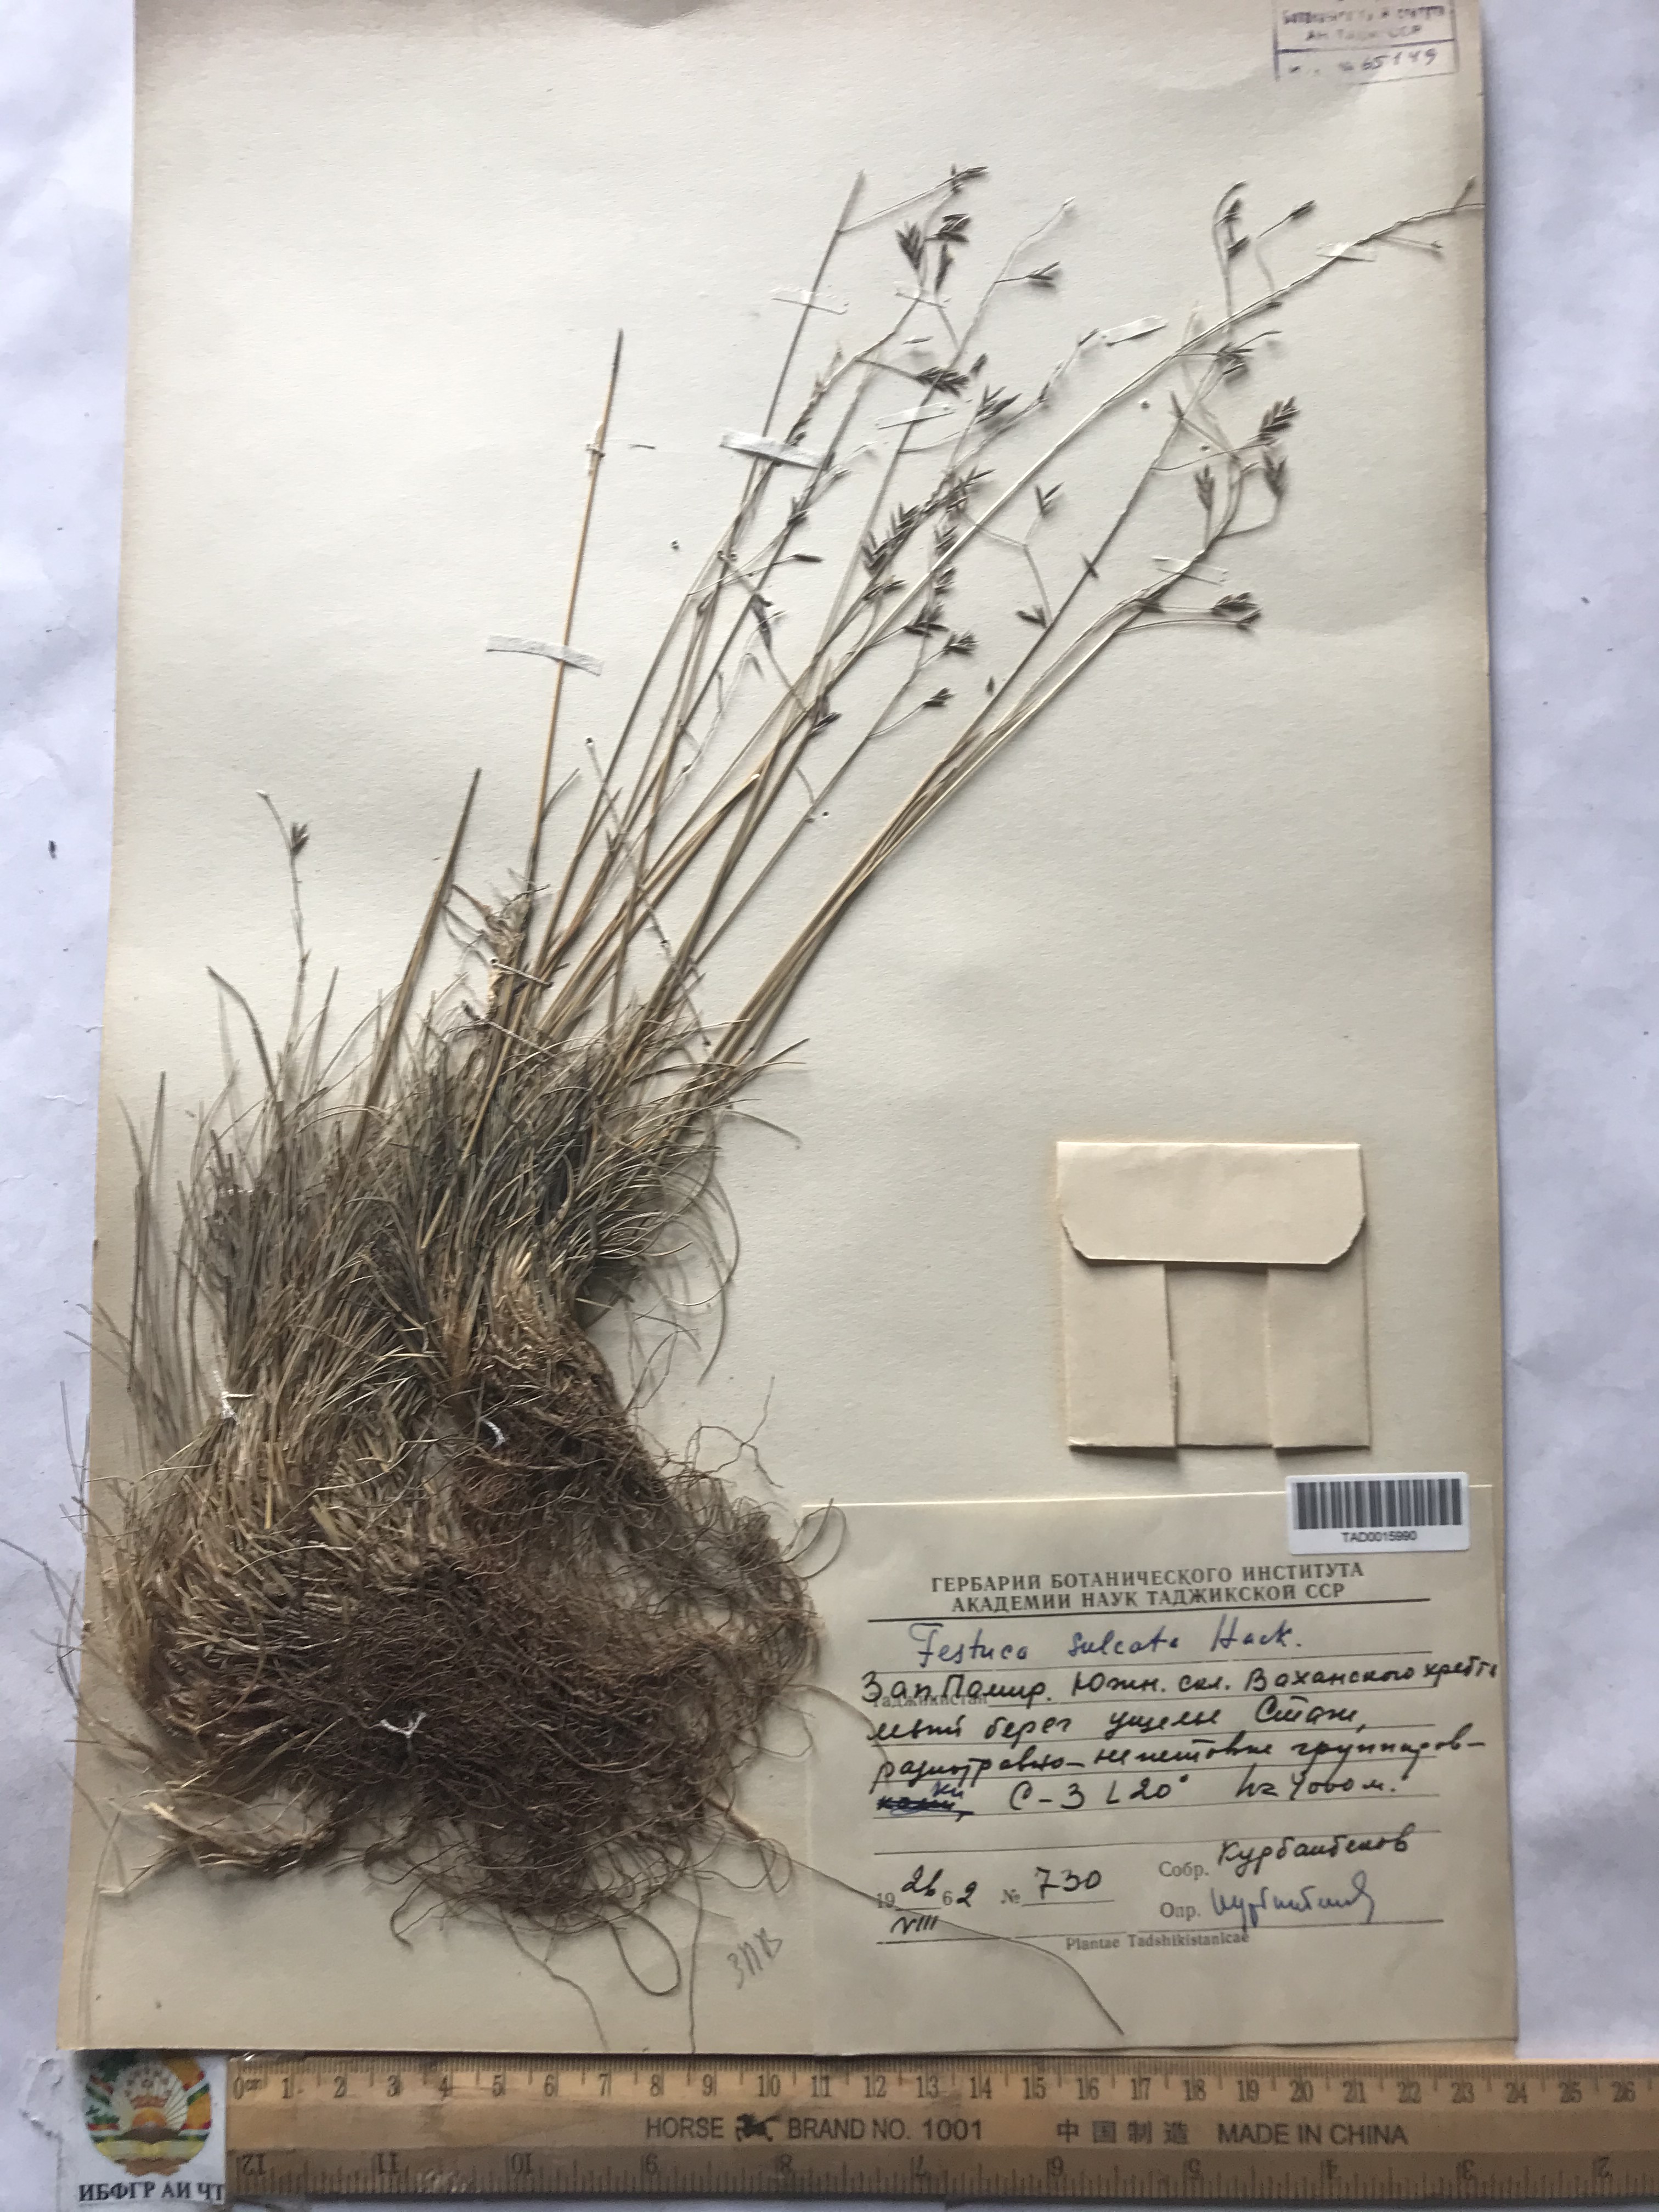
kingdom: Plantae
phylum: Tracheophyta
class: Liliopsida
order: Poales
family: Poaceae
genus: Festuca
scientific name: Festuca sulcata
